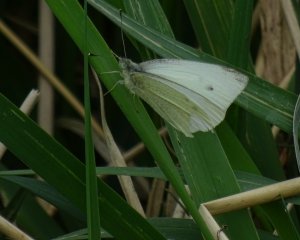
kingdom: Animalia
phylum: Arthropoda
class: Insecta
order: Lepidoptera
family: Pieridae
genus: Pieris
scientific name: Pieris rapae
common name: Cabbage White
